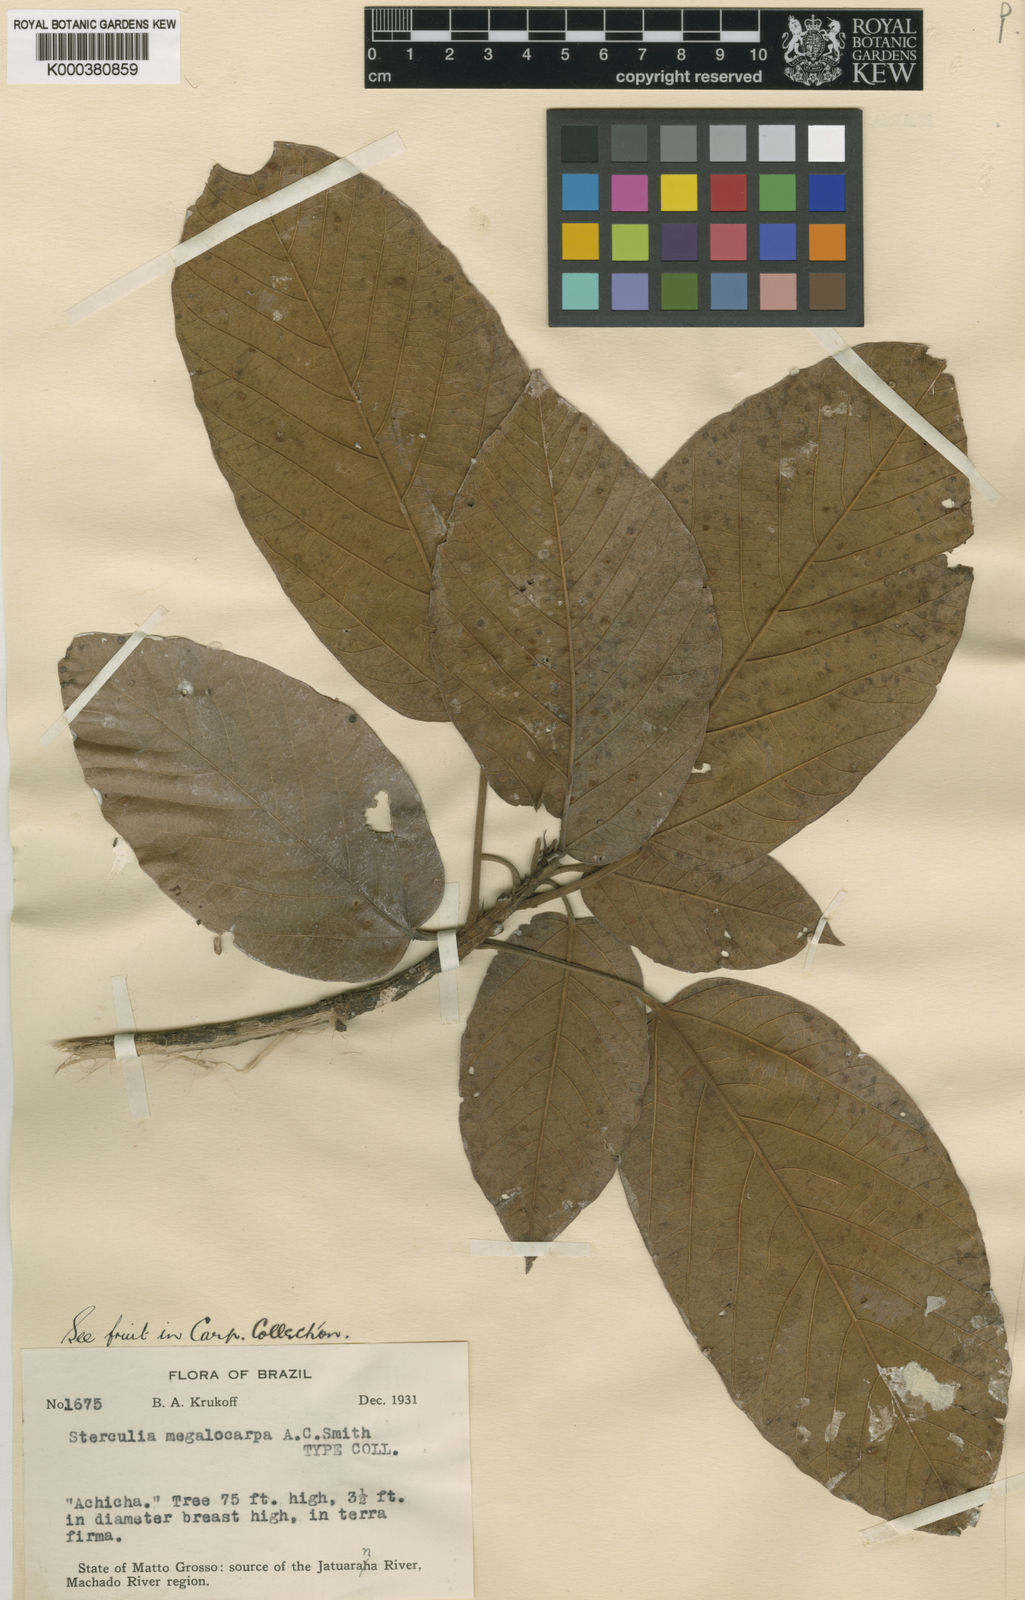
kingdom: Plantae
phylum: Tracheophyta
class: Magnoliopsida
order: Malvales
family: Malvaceae
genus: Sterculia
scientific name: Sterculia guapayensis
